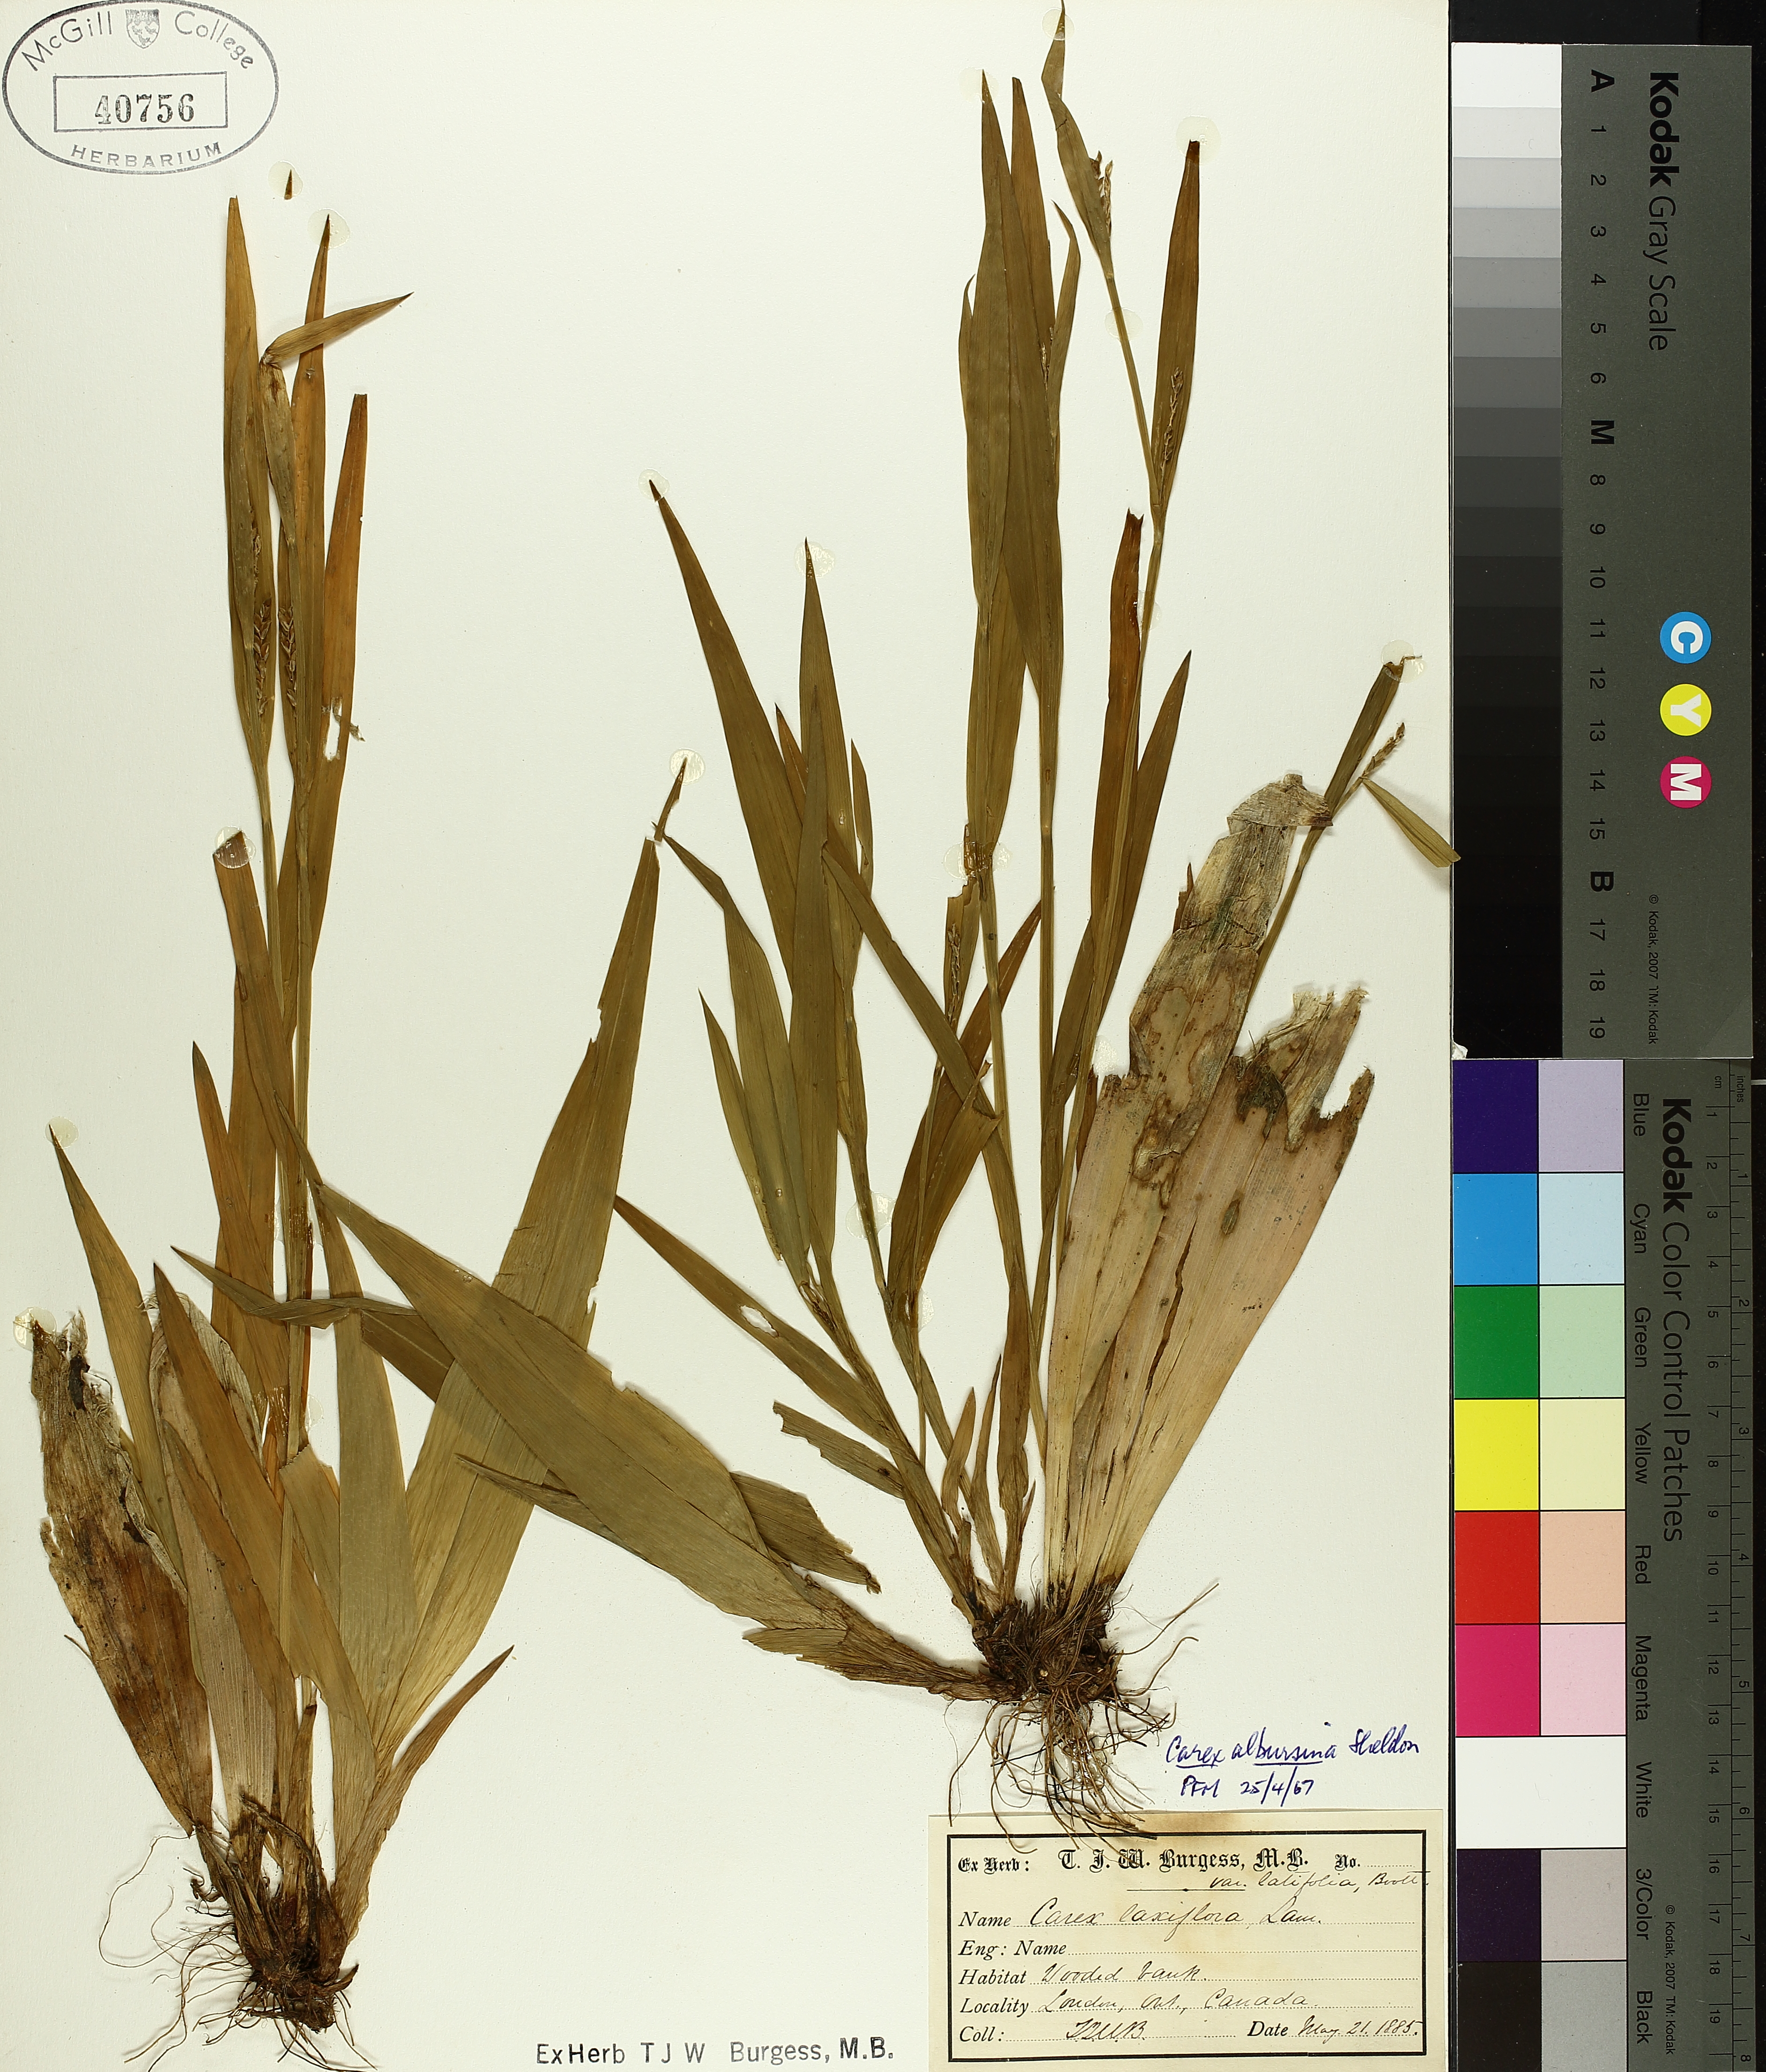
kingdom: Plantae
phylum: Tracheophyta
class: Liliopsida
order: Poales
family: Cyperaceae
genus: Carex
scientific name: Carex albursina
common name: Blunt-scale wood sedge
